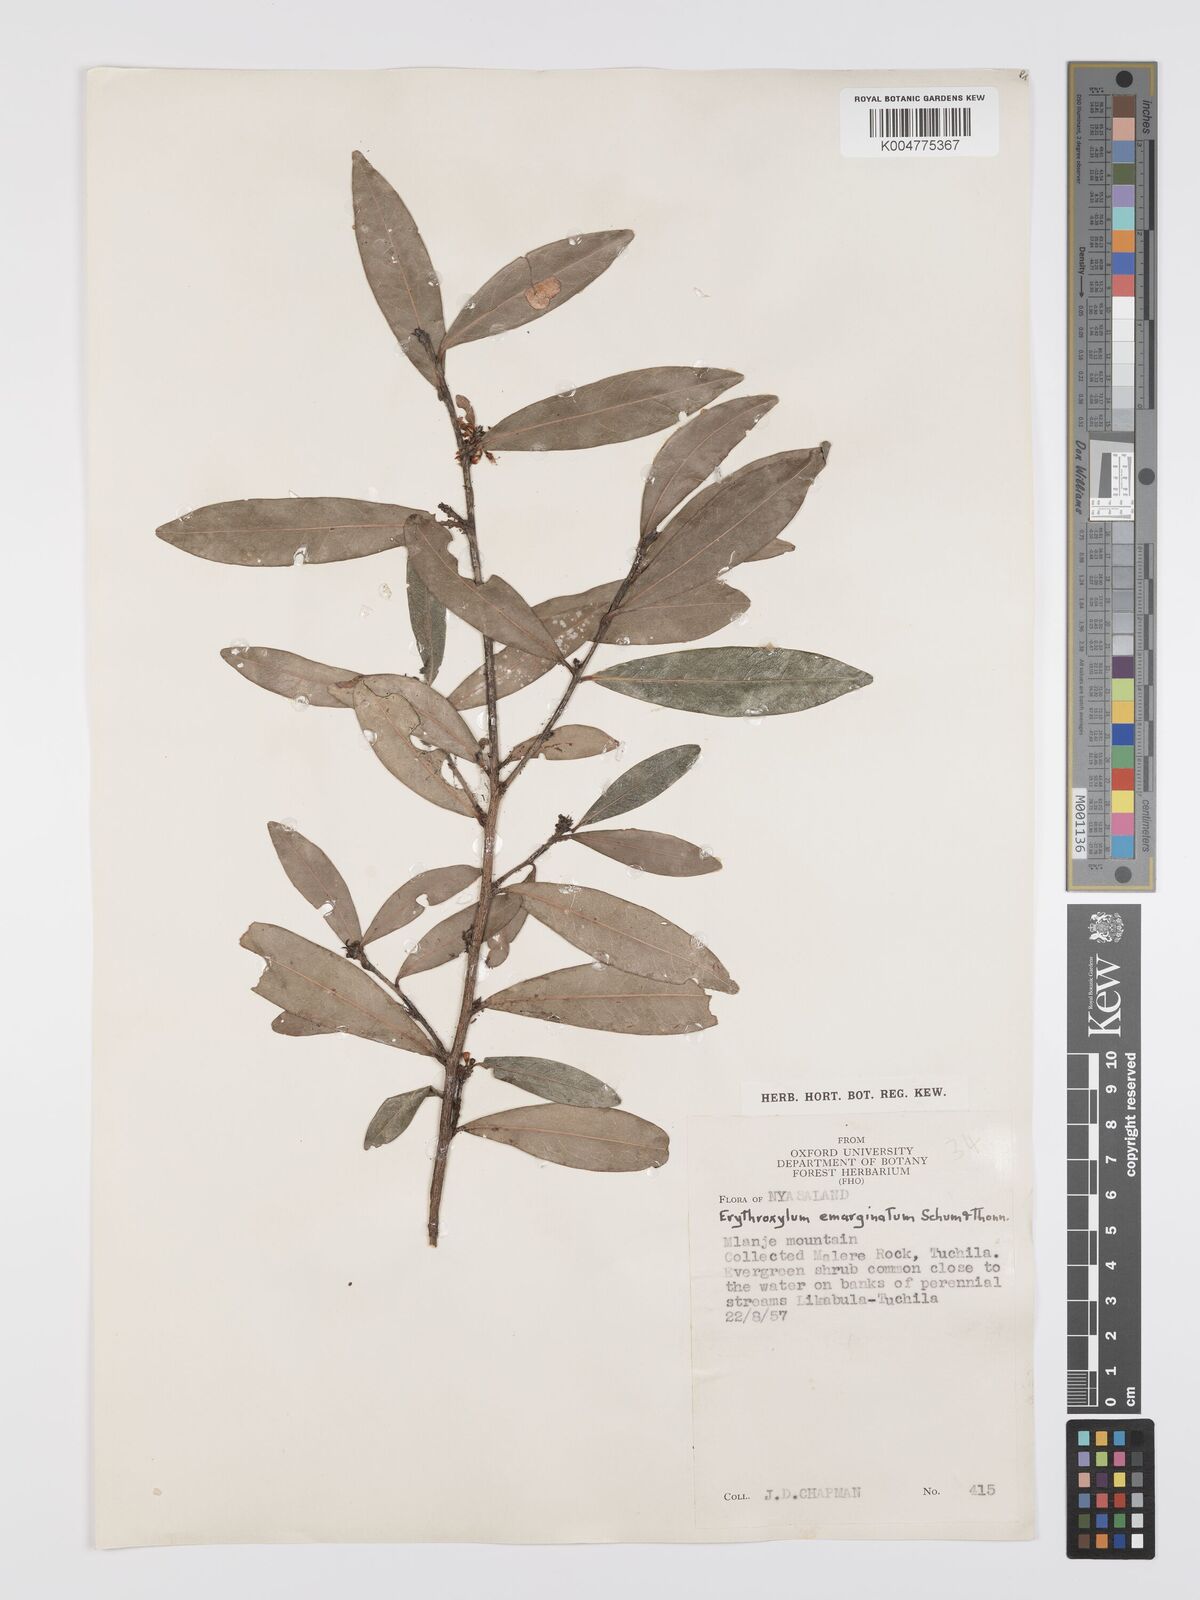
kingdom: Plantae
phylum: Tracheophyta
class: Magnoliopsida
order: Malpighiales
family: Erythroxylaceae
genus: Erythroxylum
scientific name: Erythroxylum emarginatum
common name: African coca-tree
